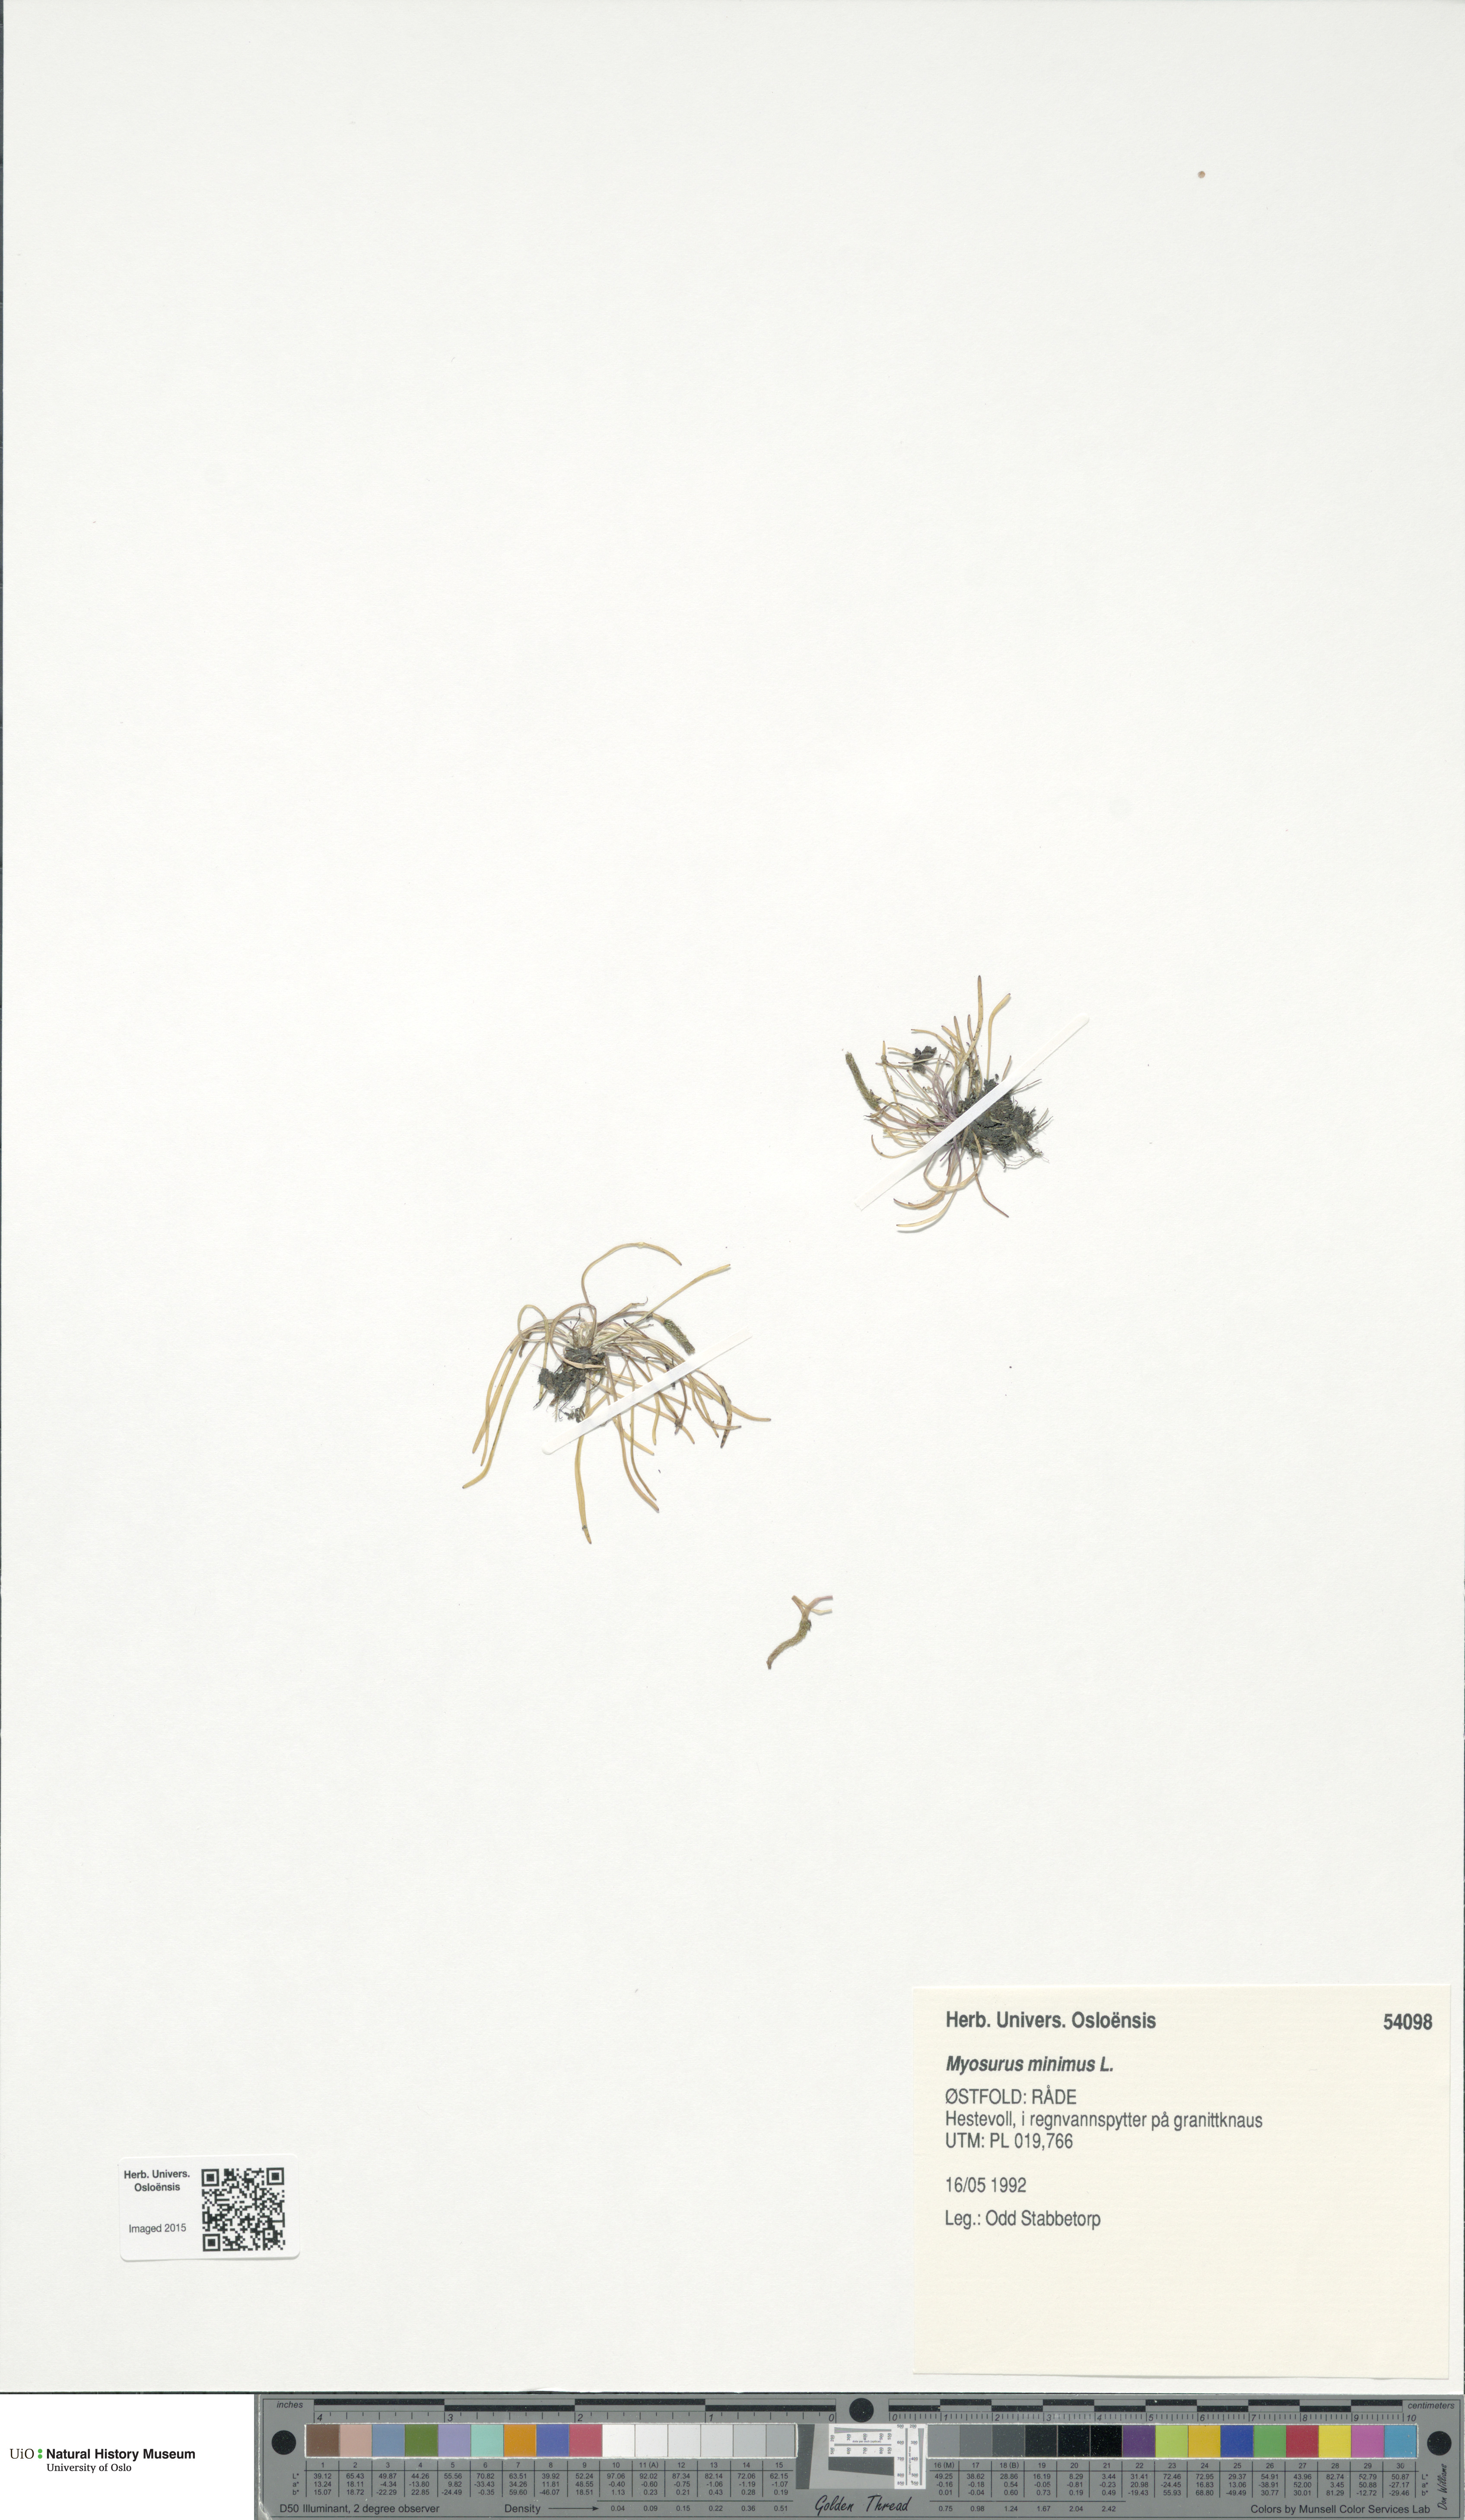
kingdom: Plantae
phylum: Tracheophyta
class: Magnoliopsida
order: Ranunculales
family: Ranunculaceae
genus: Myosurus
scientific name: Myosurus minimus
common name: Mousetail
